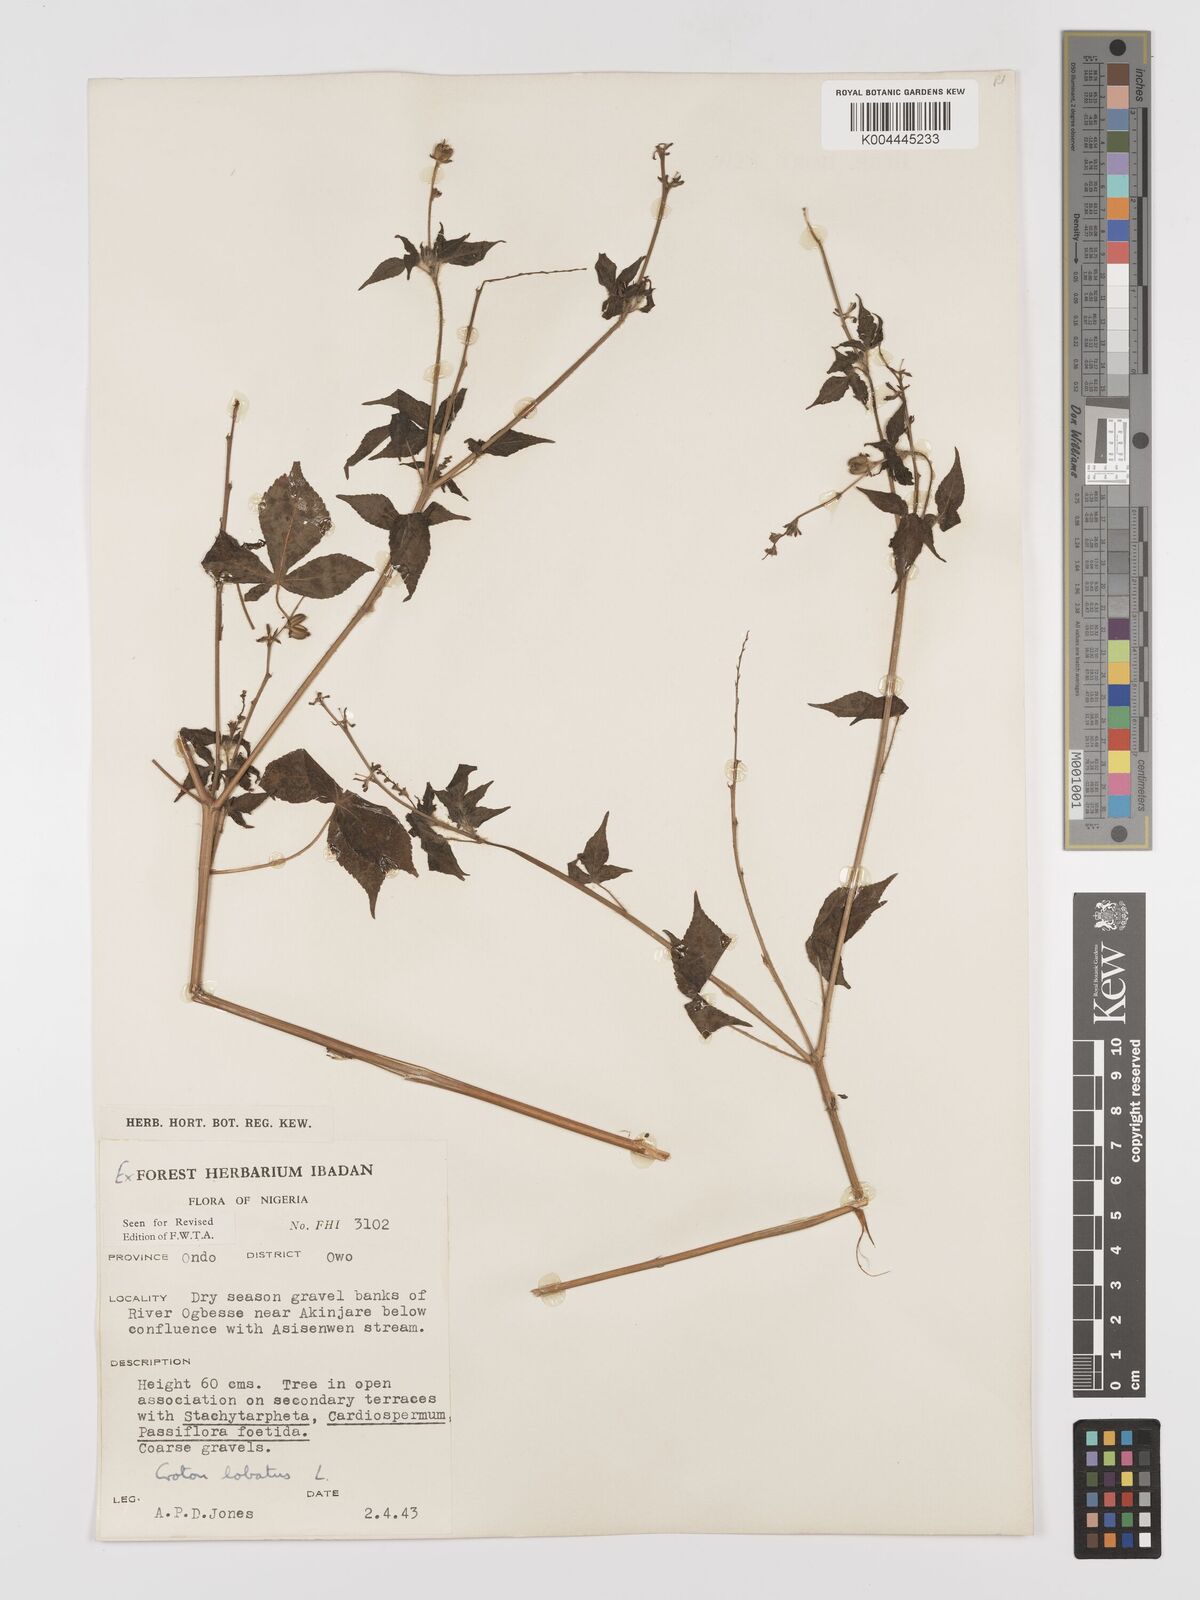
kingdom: Plantae
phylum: Tracheophyta
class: Magnoliopsida
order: Malpighiales
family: Euphorbiaceae
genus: Astraea
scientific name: Astraea lobata
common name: Lobed croton
